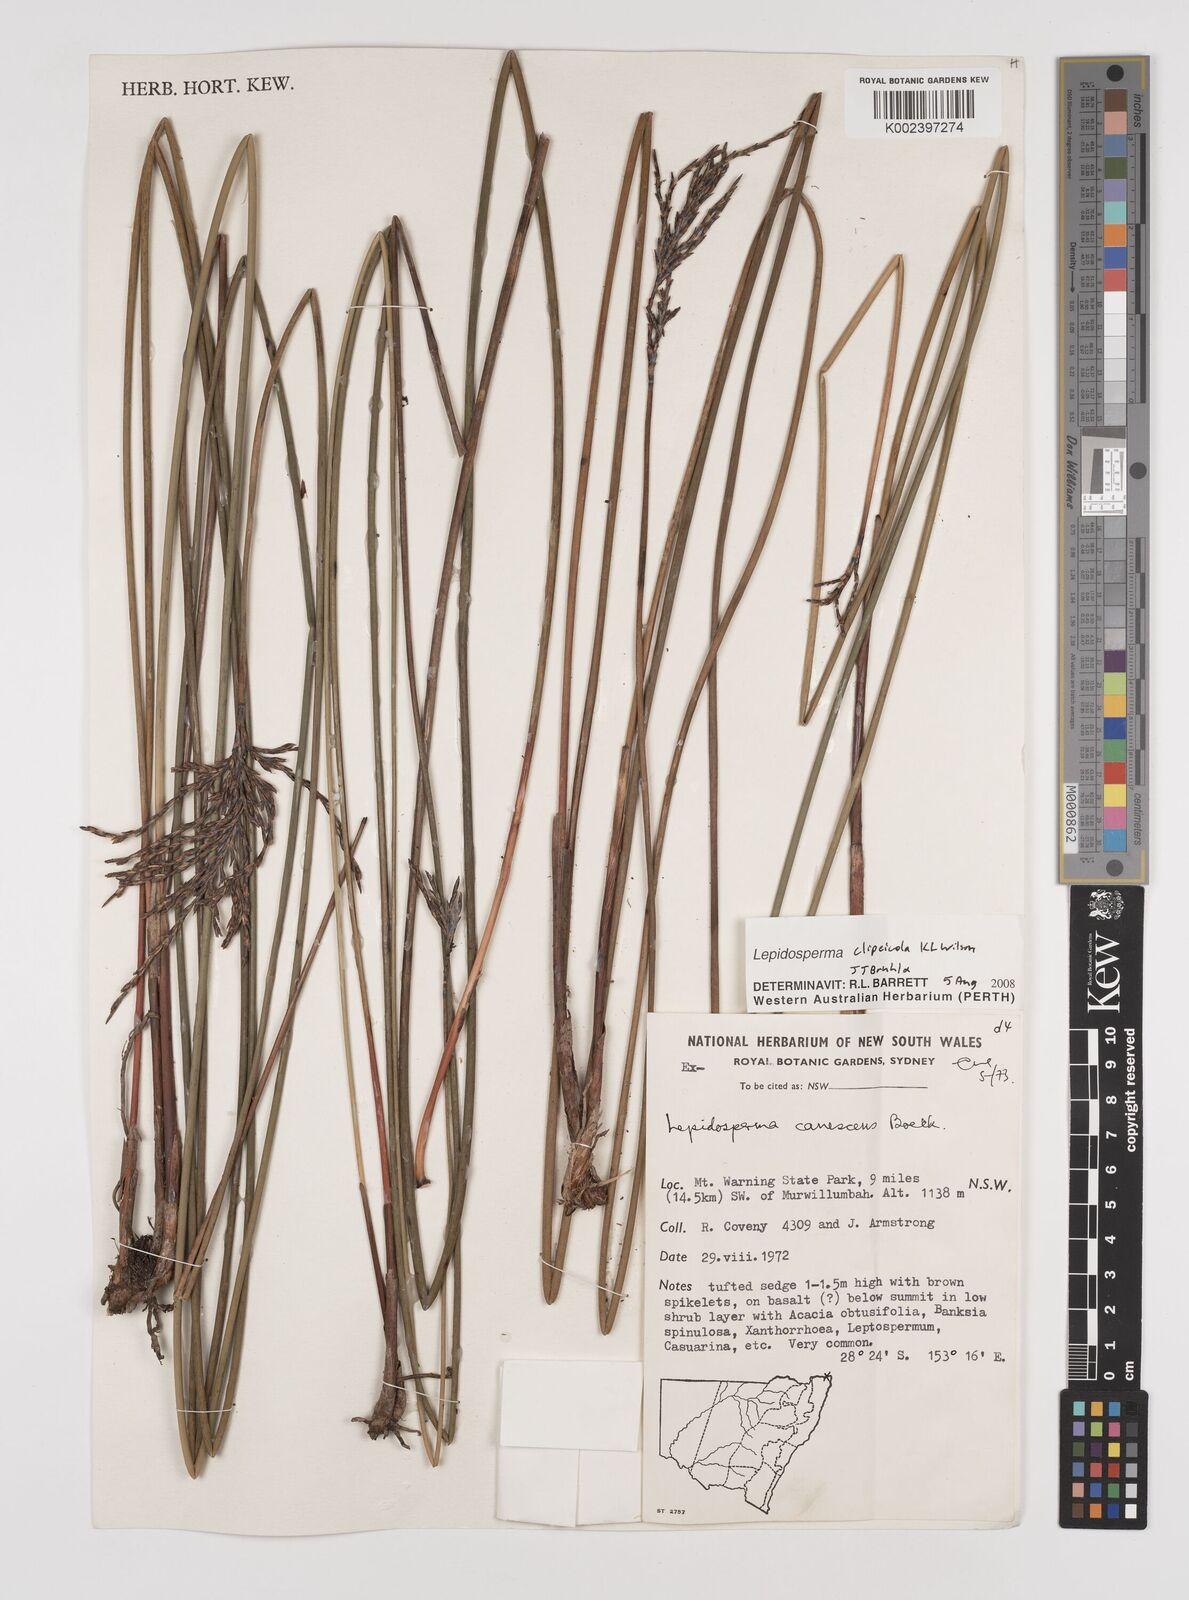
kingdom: Plantae
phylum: Tracheophyta
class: Liliopsida
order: Poales
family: Cyperaceae
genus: Lepidosperma
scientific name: Lepidosperma clipeicola
